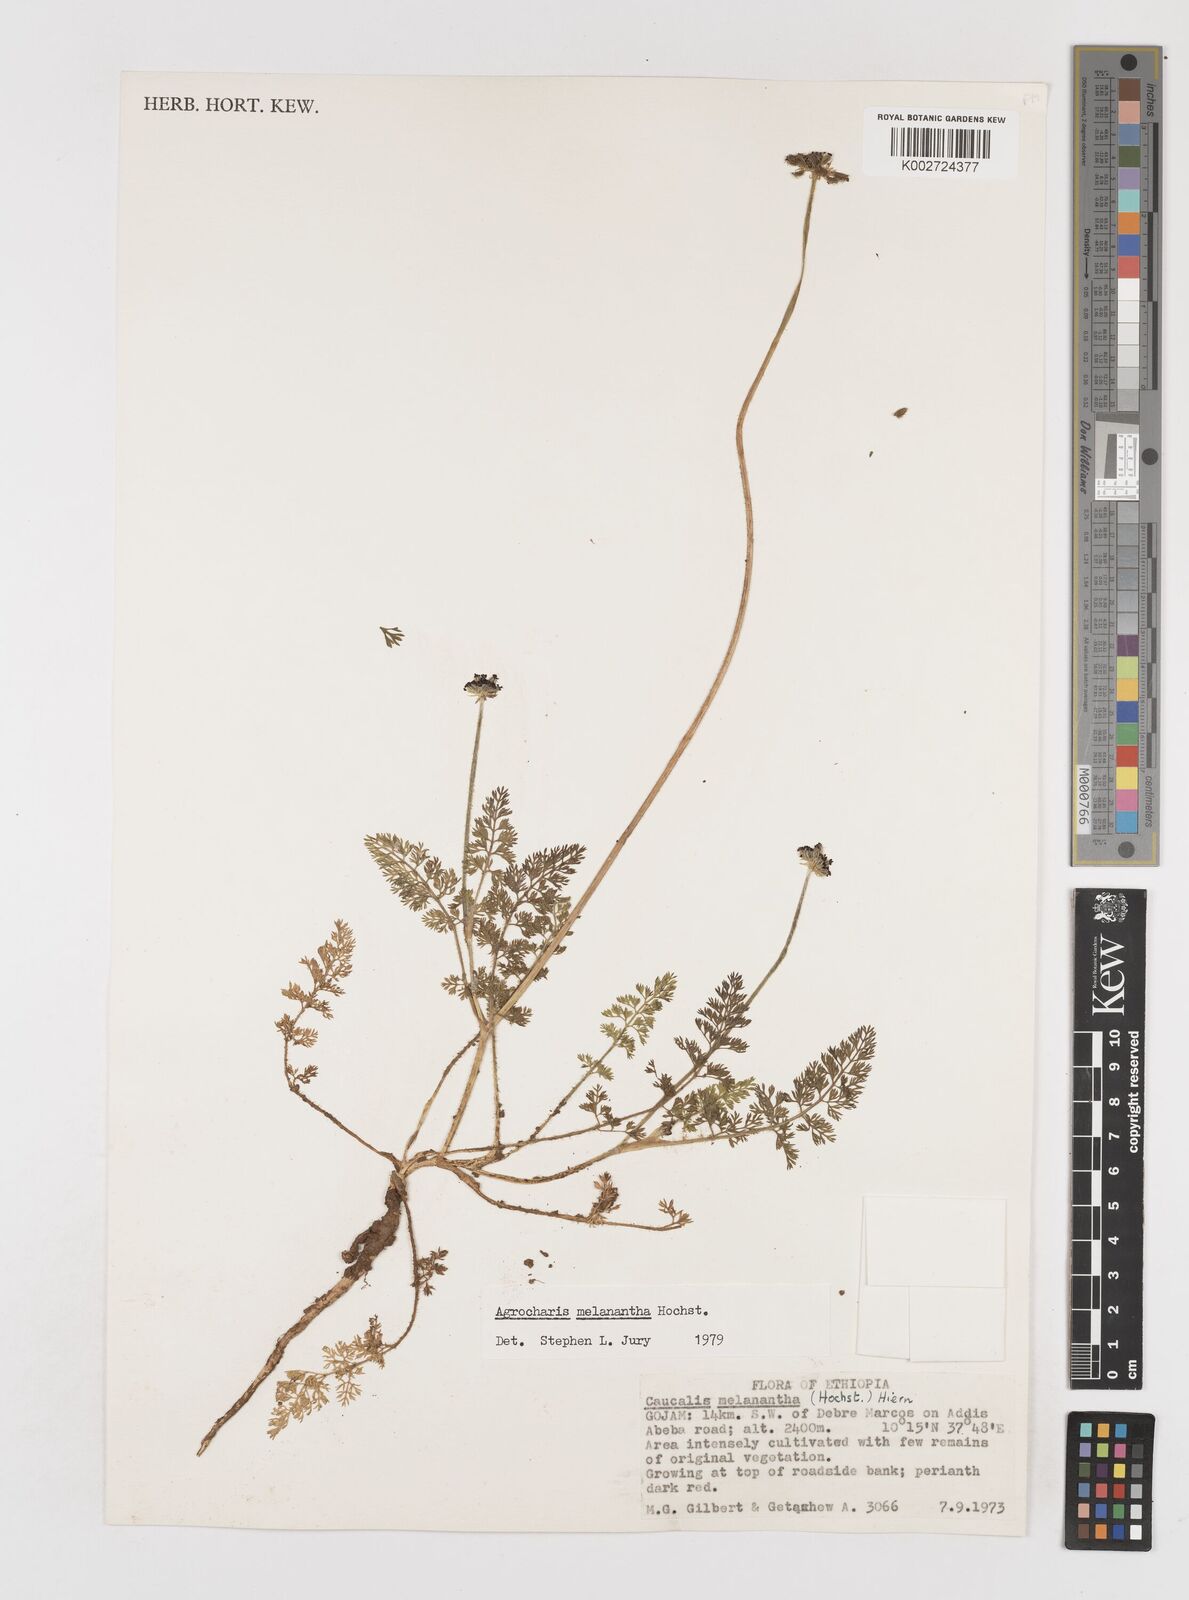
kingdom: Plantae
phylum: Tracheophyta
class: Magnoliopsida
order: Apiales
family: Apiaceae
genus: Daucus
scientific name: Daucus melananthus
